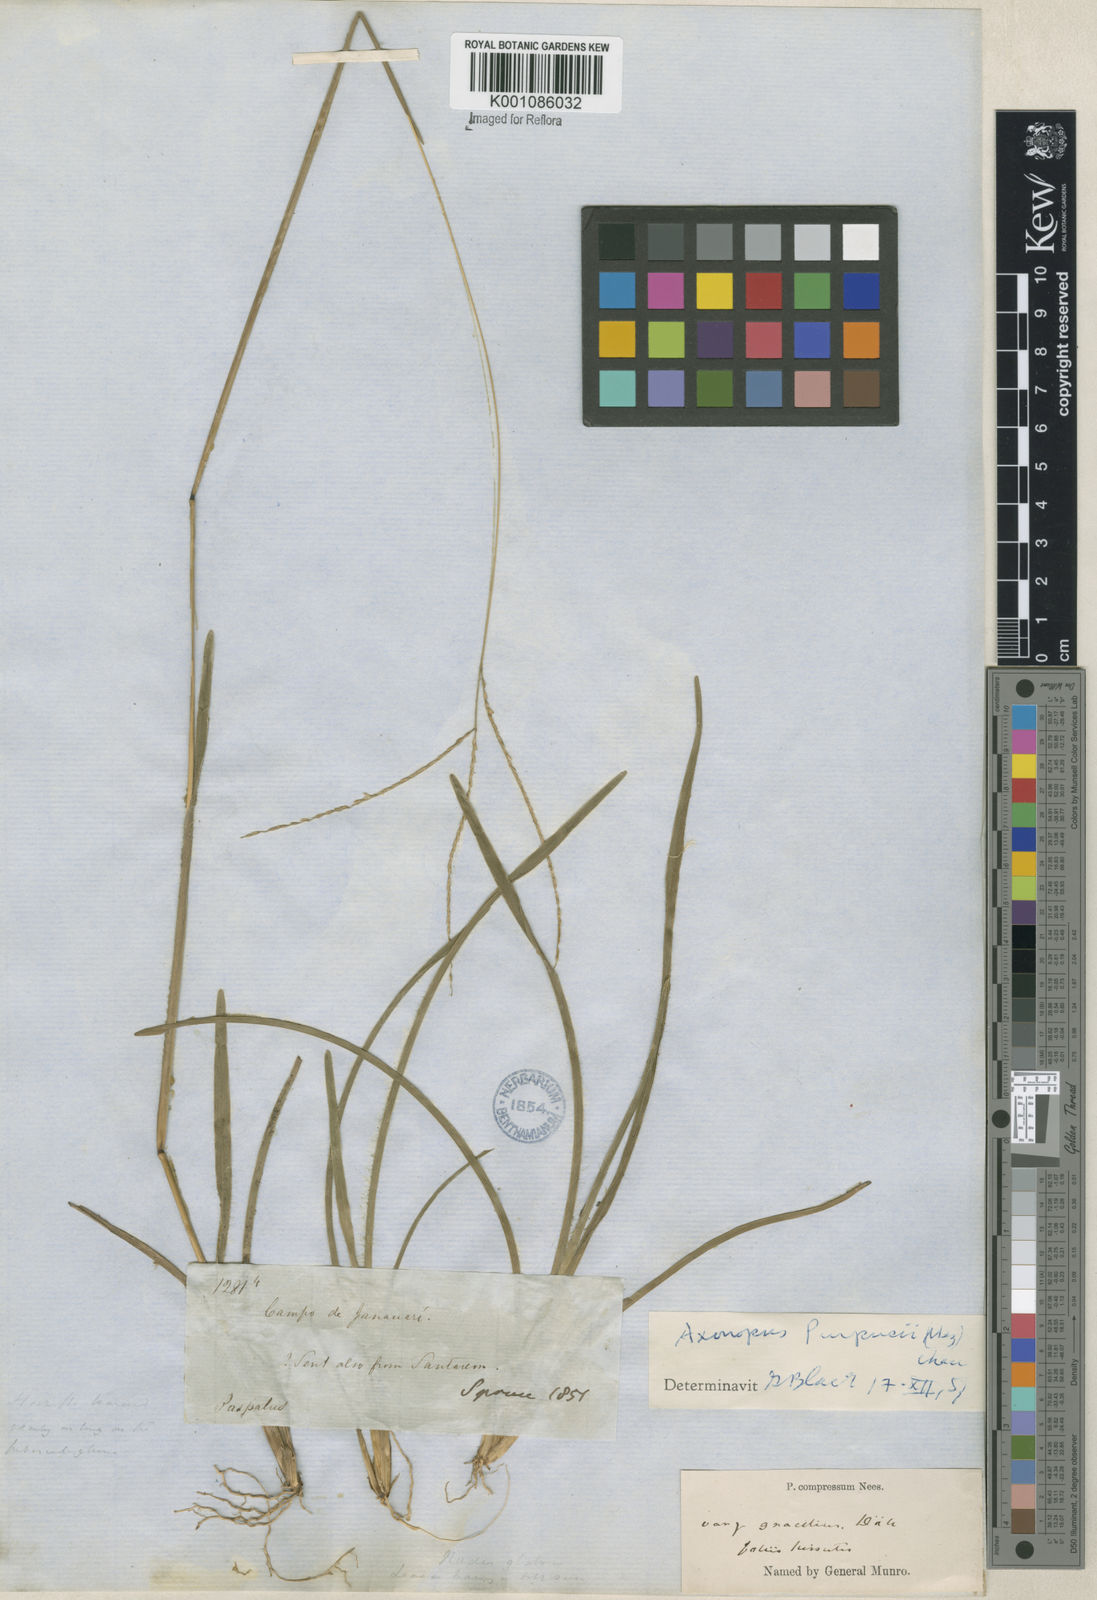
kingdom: Plantae
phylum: Tracheophyta
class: Liliopsida
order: Poales
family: Poaceae
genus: Axonopus
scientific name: Axonopus purpusii
